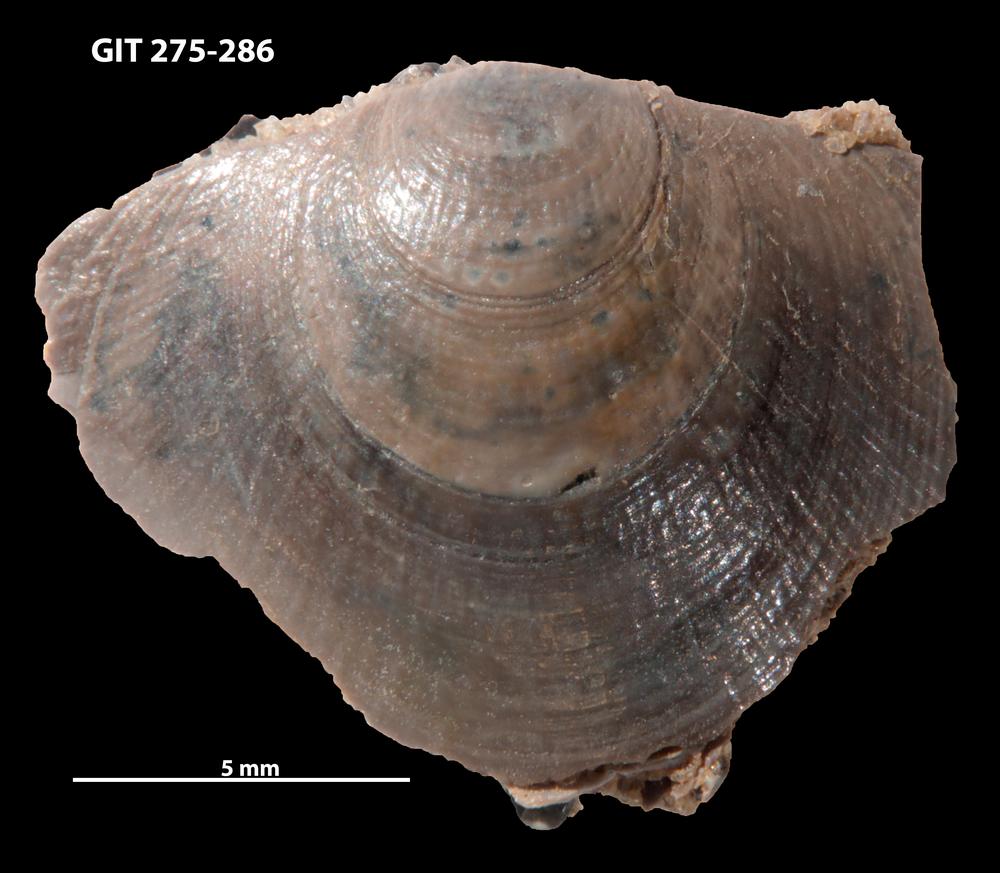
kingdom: Animalia
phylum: Brachiopoda
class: Lingulata
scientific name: Lingulata
